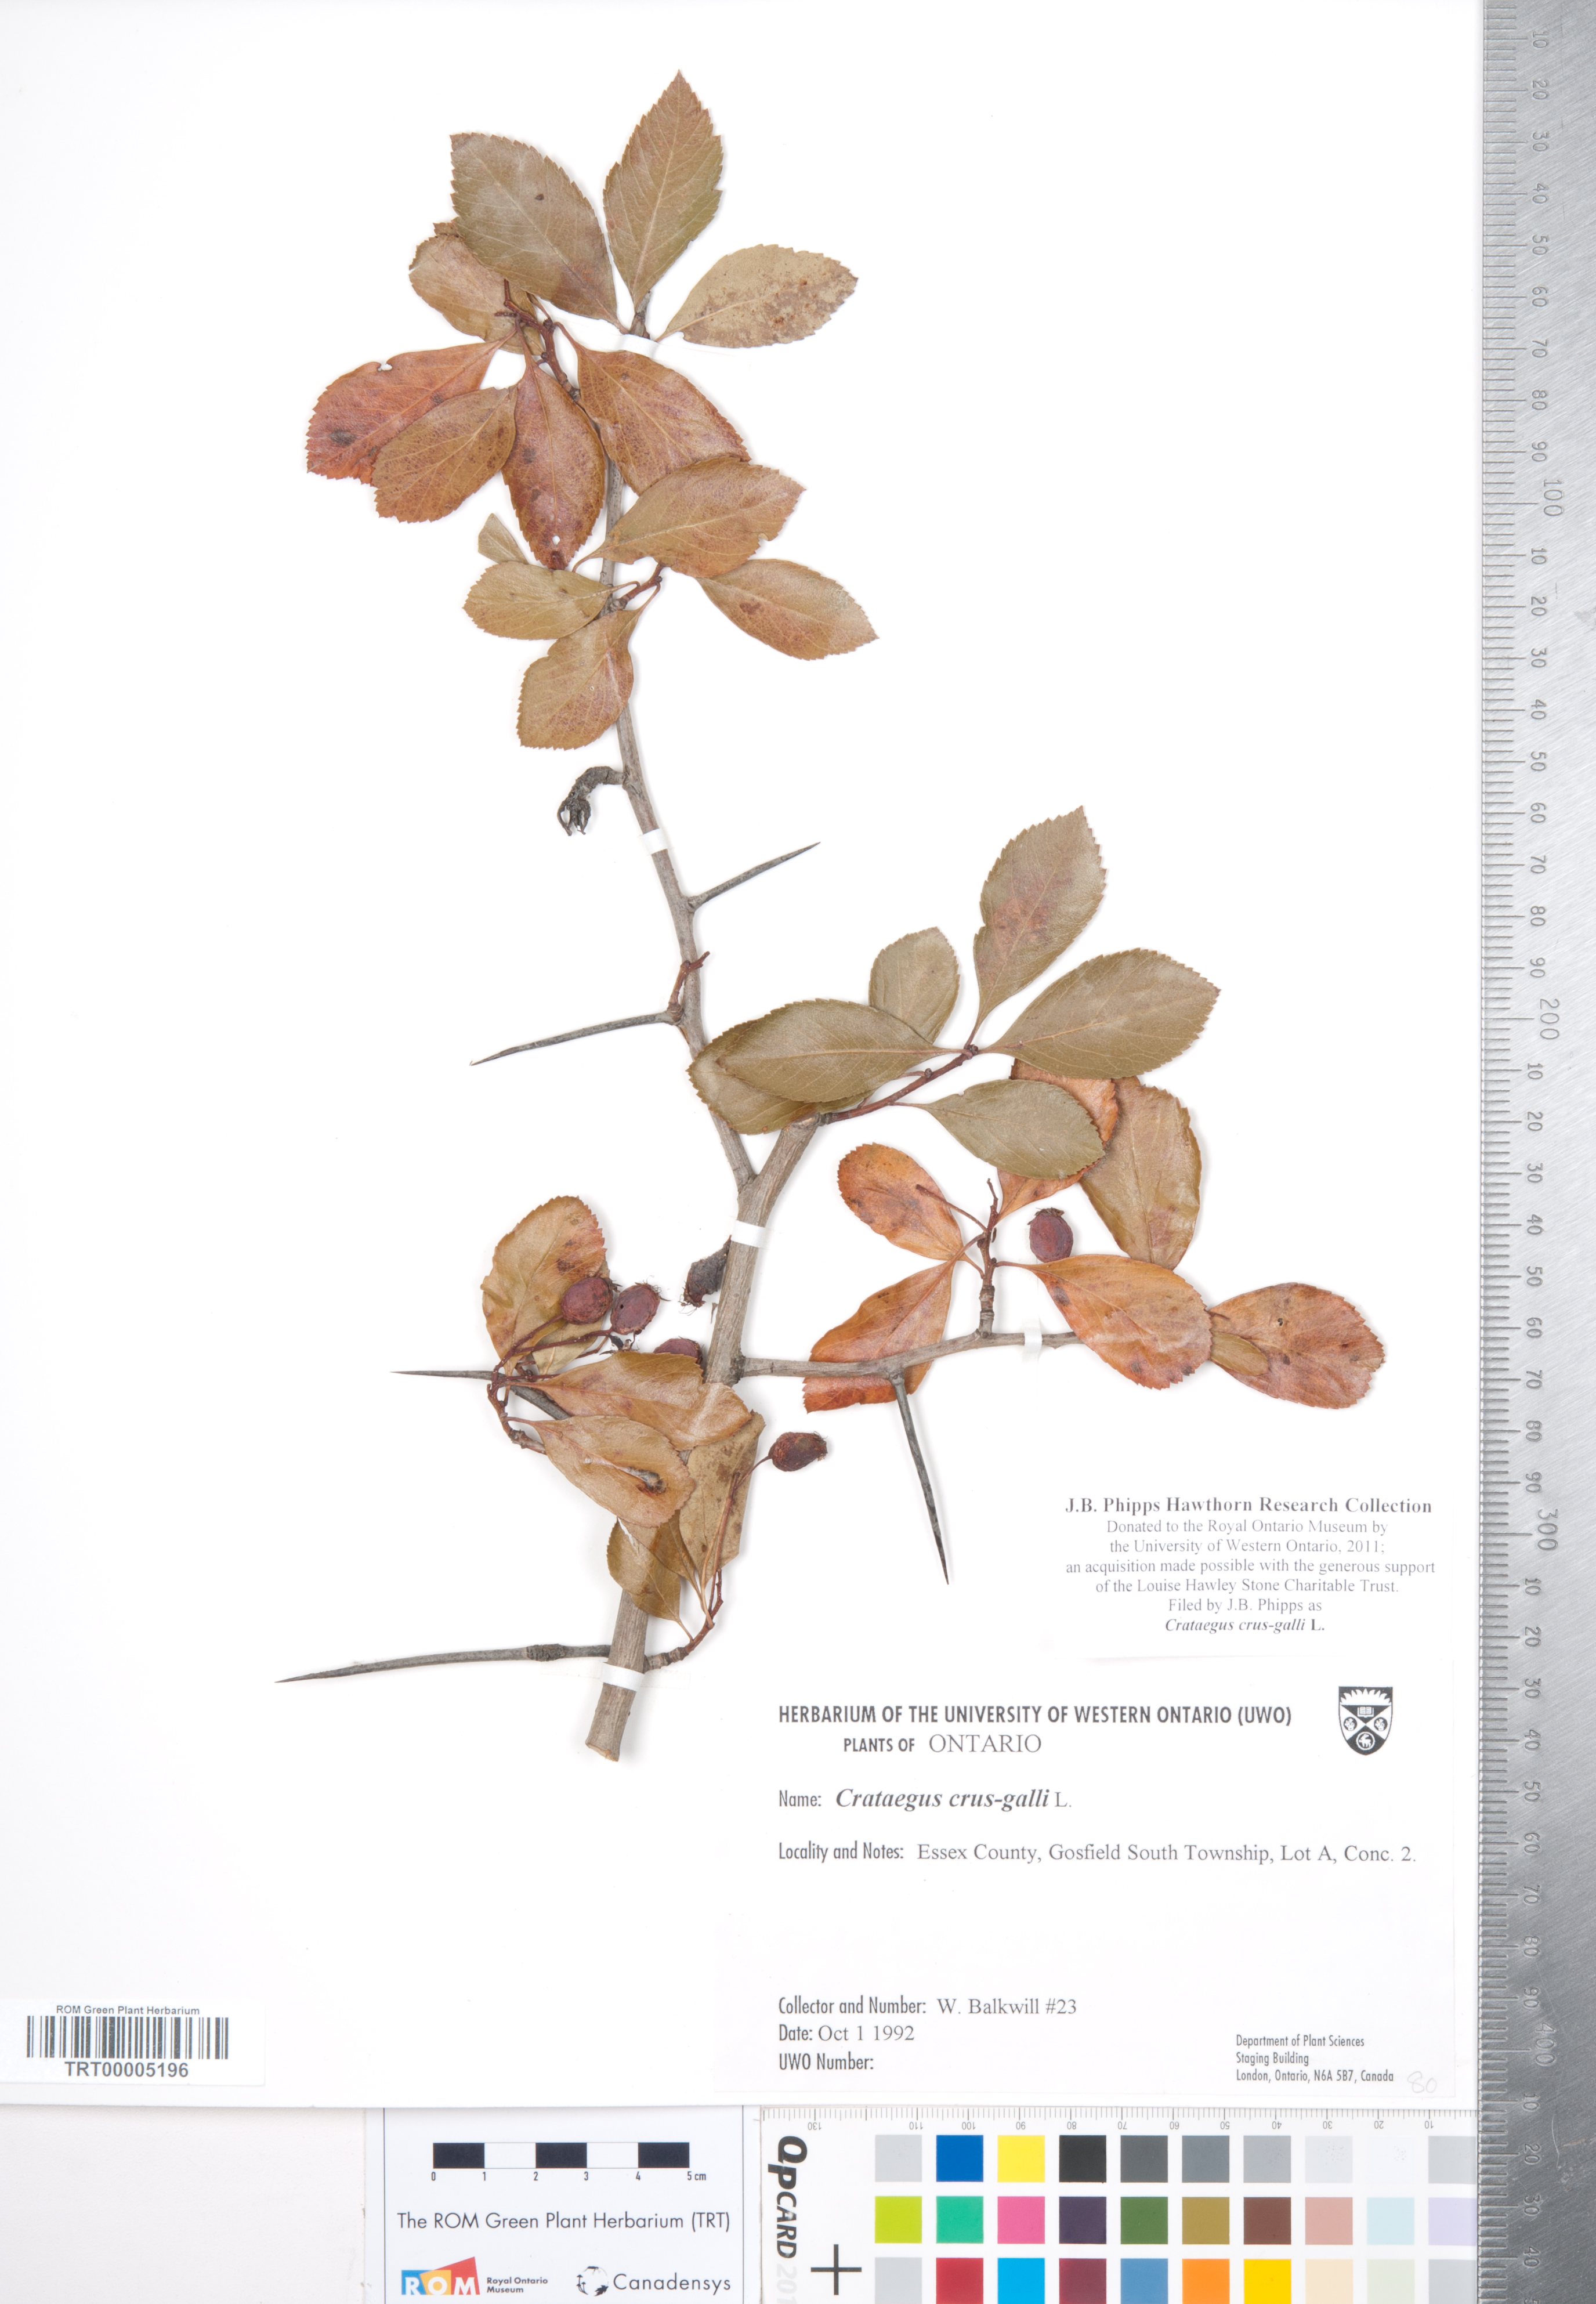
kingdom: Plantae
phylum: Tracheophyta
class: Magnoliopsida
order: Rosales
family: Rosaceae
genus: Crataegus
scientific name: Crataegus crus-galli
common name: Cockspurthorn
